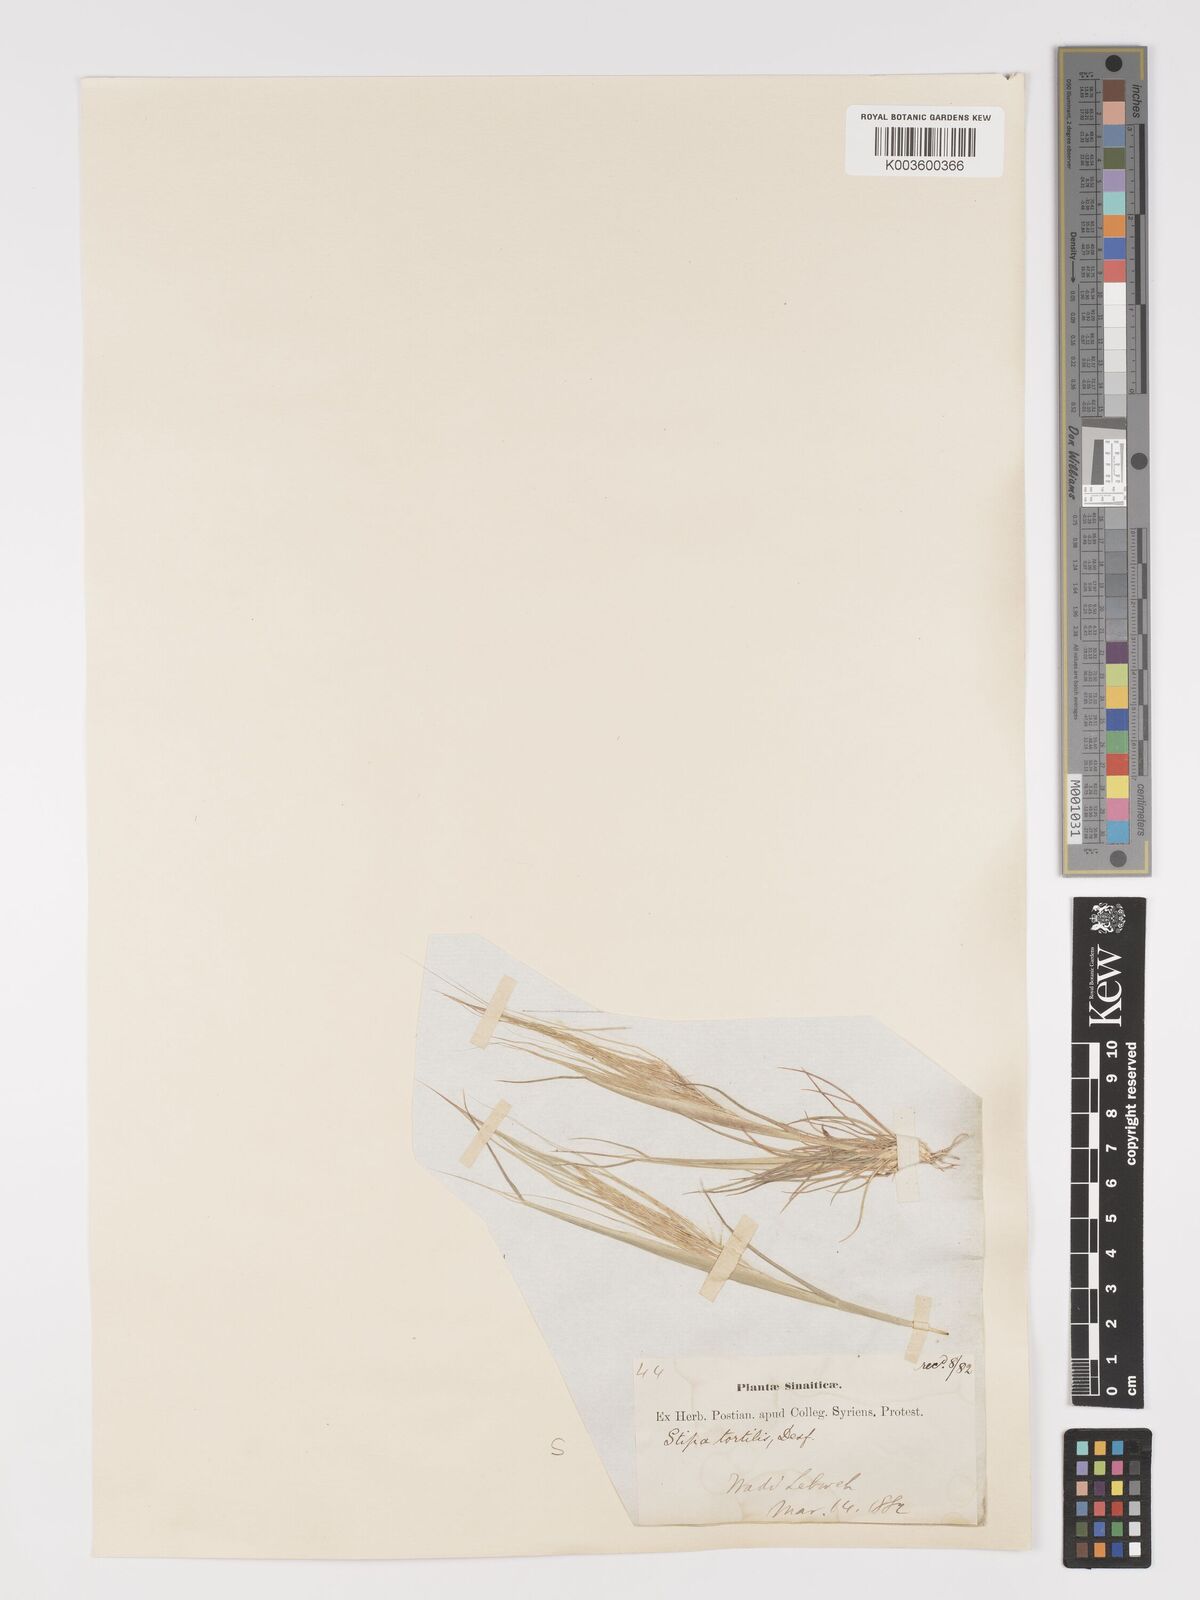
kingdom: Plantae
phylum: Tracheophyta
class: Liliopsida
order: Poales
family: Poaceae
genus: Stipellula
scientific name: Stipellula capensis
